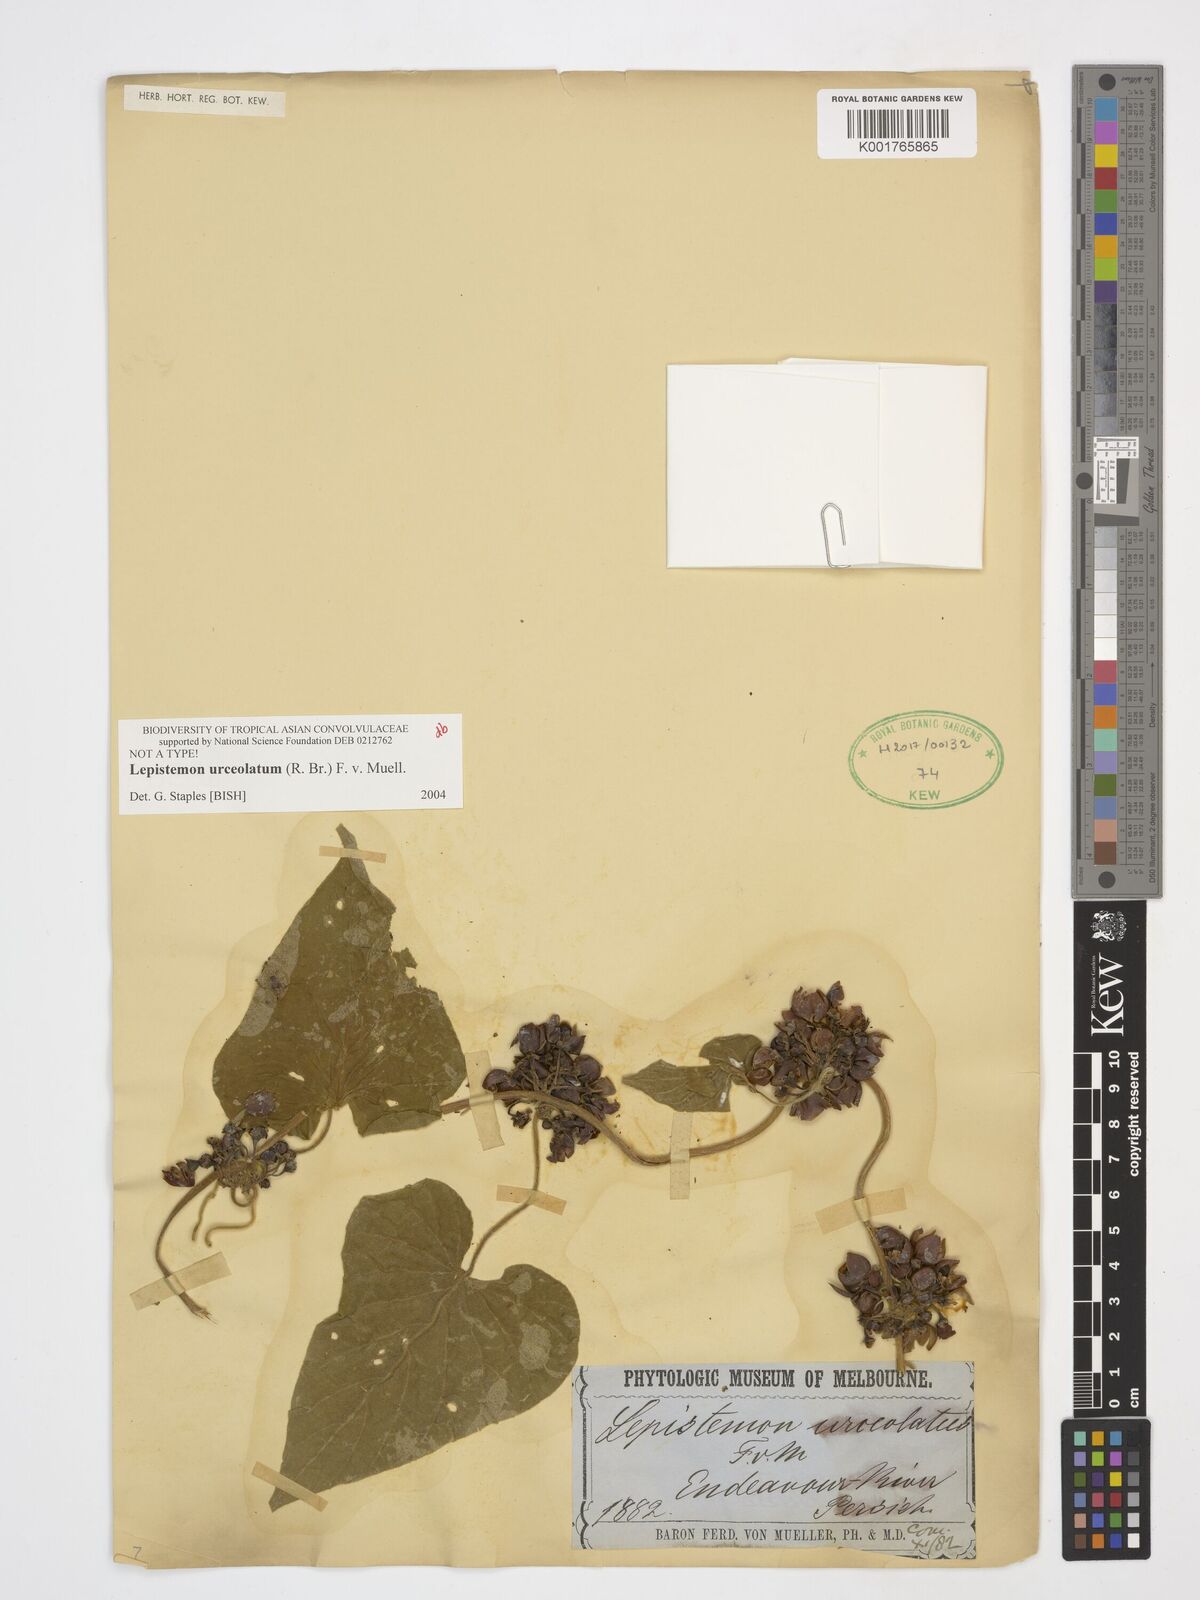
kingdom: Plantae
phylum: Tracheophyta
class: Magnoliopsida
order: Solanales
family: Convolvulaceae
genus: Lepistemon
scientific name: Lepistemon urceolatus
